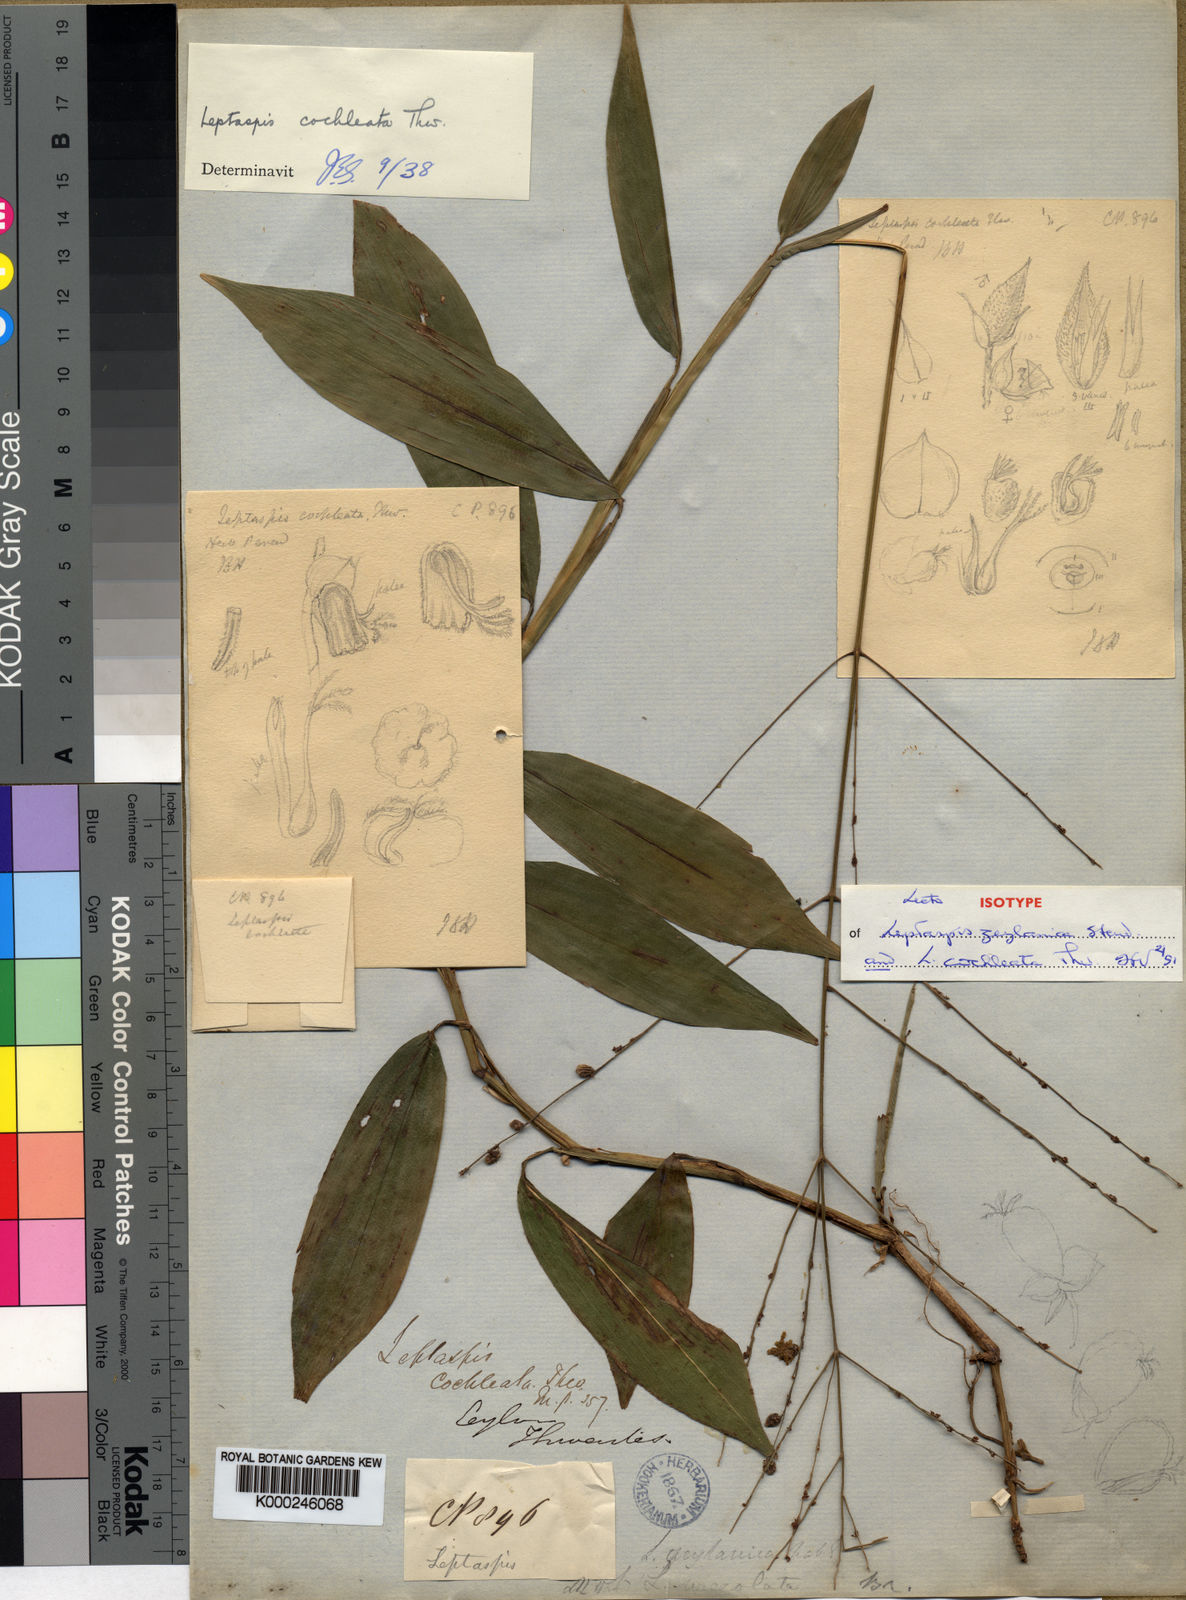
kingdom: Plantae
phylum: Tracheophyta
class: Liliopsida
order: Poales
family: Poaceae
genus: Leptaspis
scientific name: Leptaspis zeylanica
